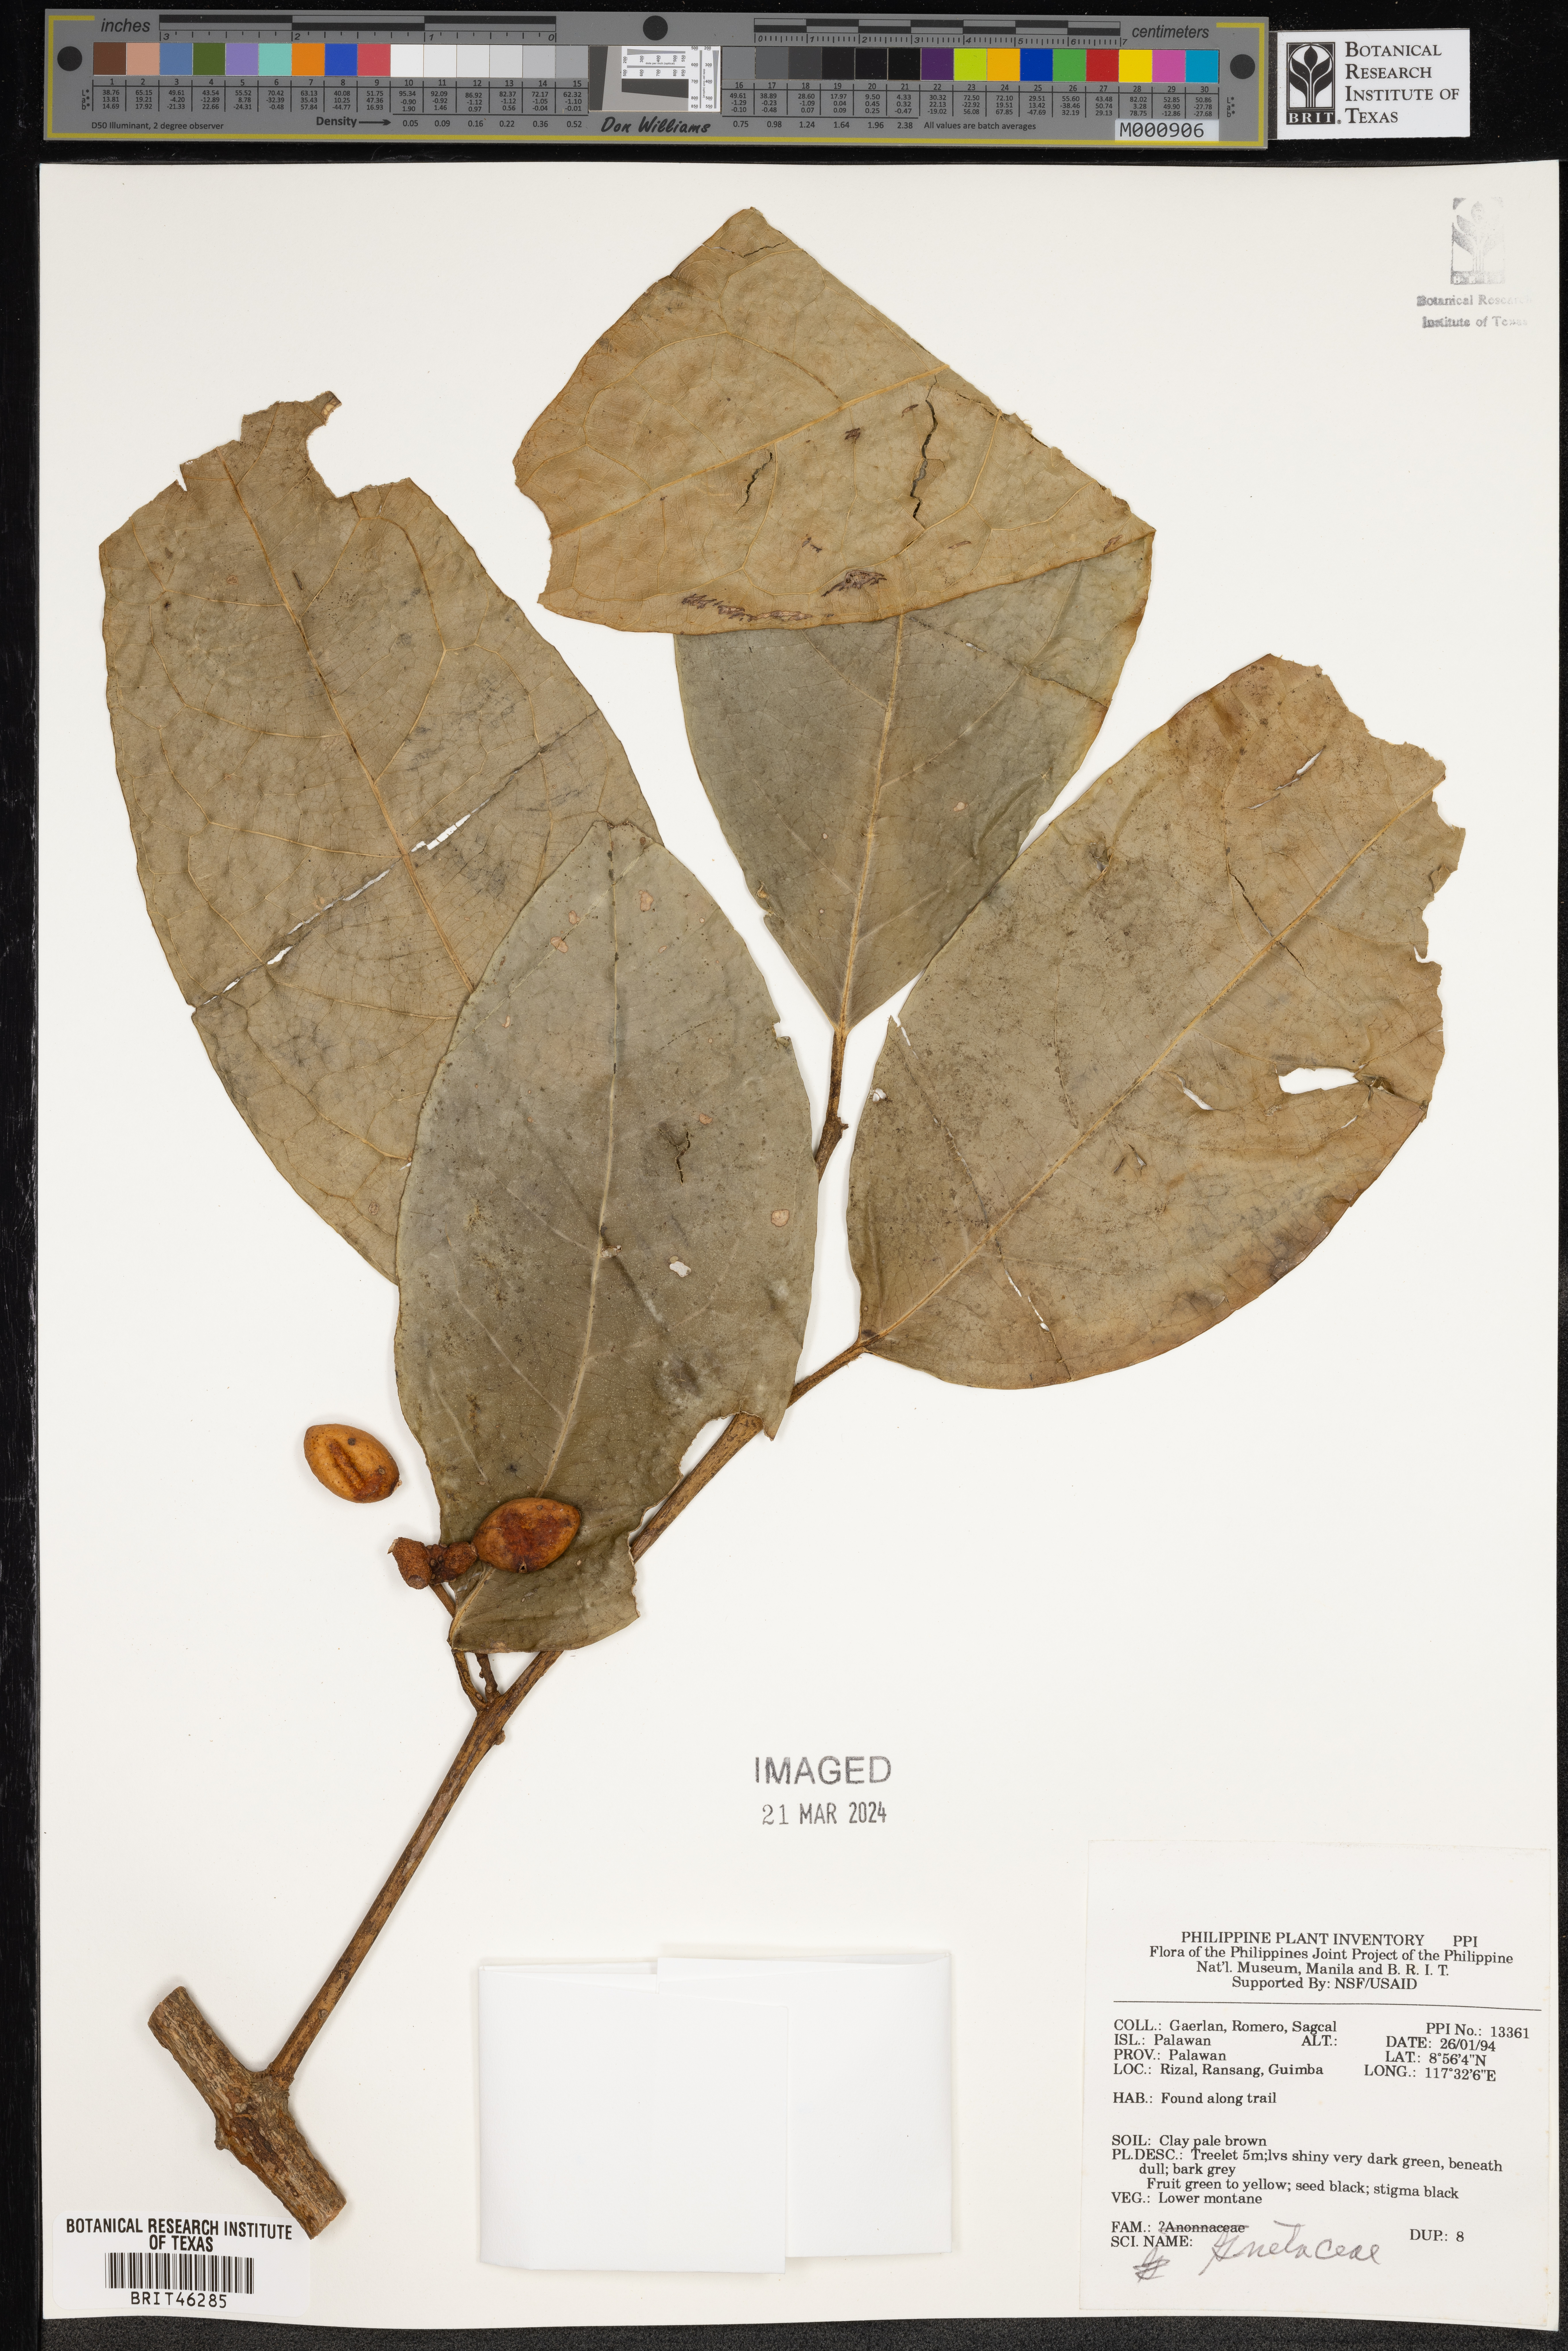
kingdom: Plantae
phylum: Tracheophyta
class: Gnetopsida
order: Gnetales
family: Gnetaceae
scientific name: Gnetaceae
